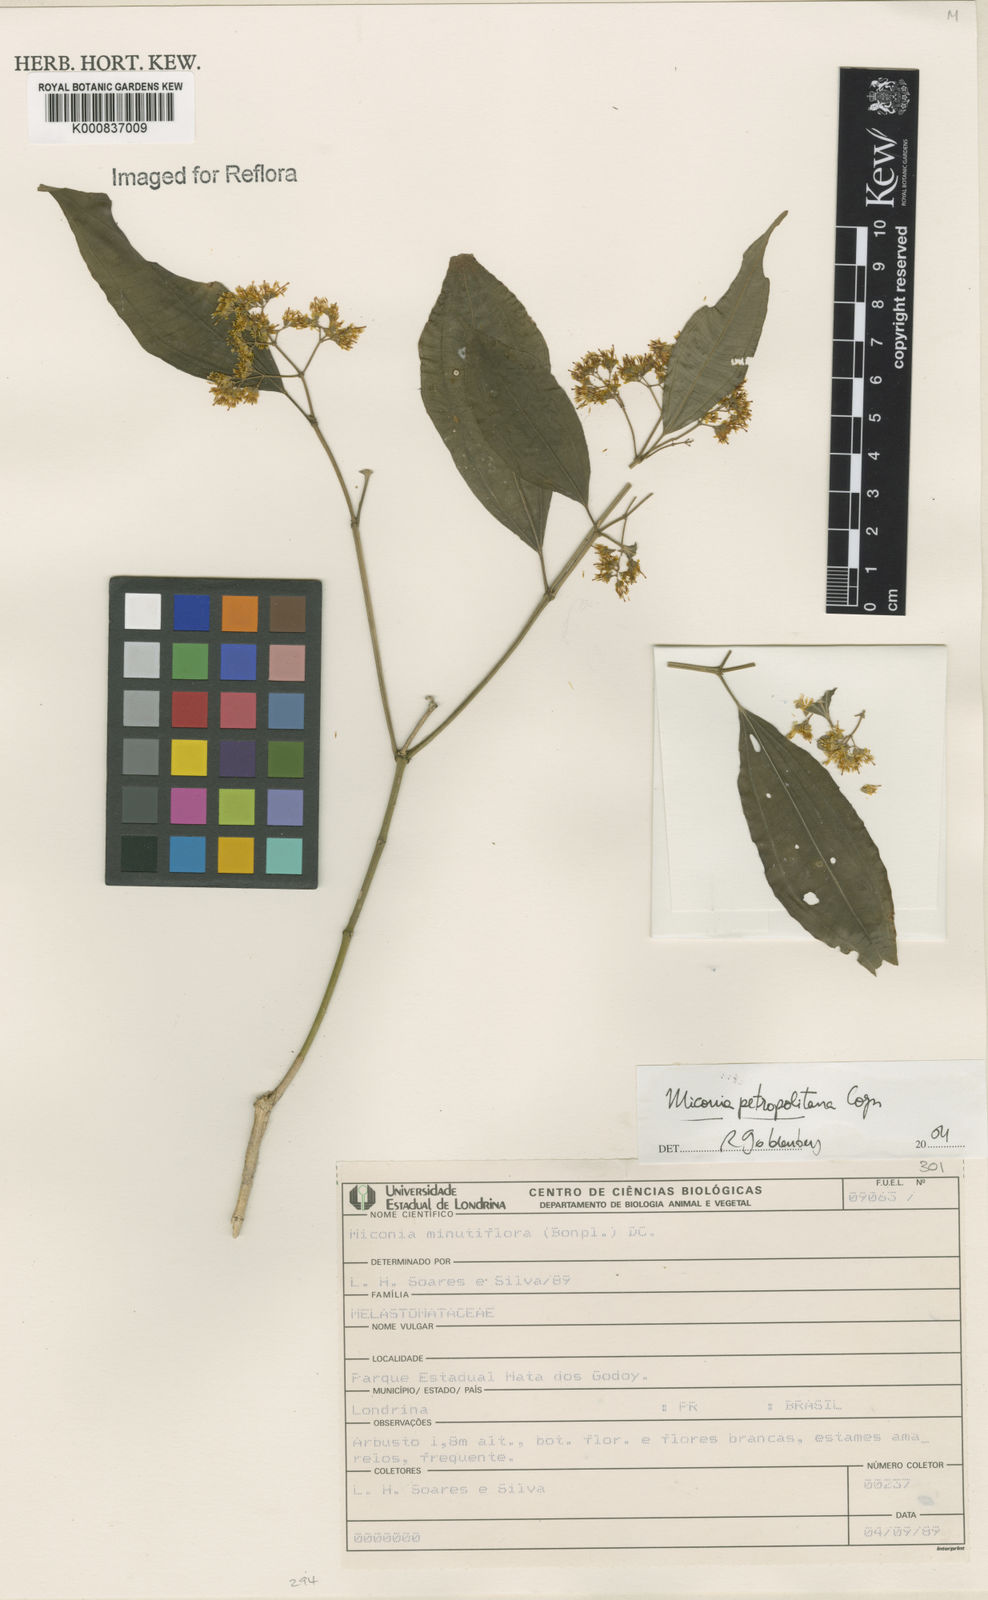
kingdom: Plantae
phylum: Tracheophyta
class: Magnoliopsida
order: Myrtales
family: Melastomataceae
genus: Miconia
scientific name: Miconia petropolitana
